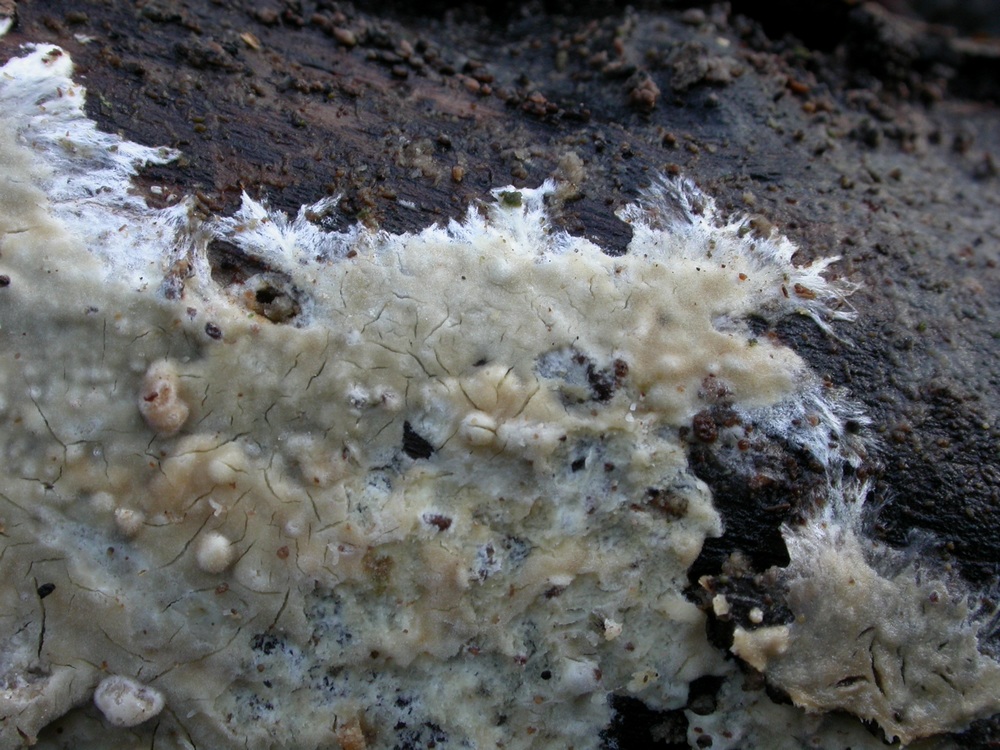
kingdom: Fungi
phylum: Basidiomycota
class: Agaricomycetes
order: Polyporales
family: Phanerochaetaceae
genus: Phanerochaete
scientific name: Phanerochaete velutina
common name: dunet randtråd
